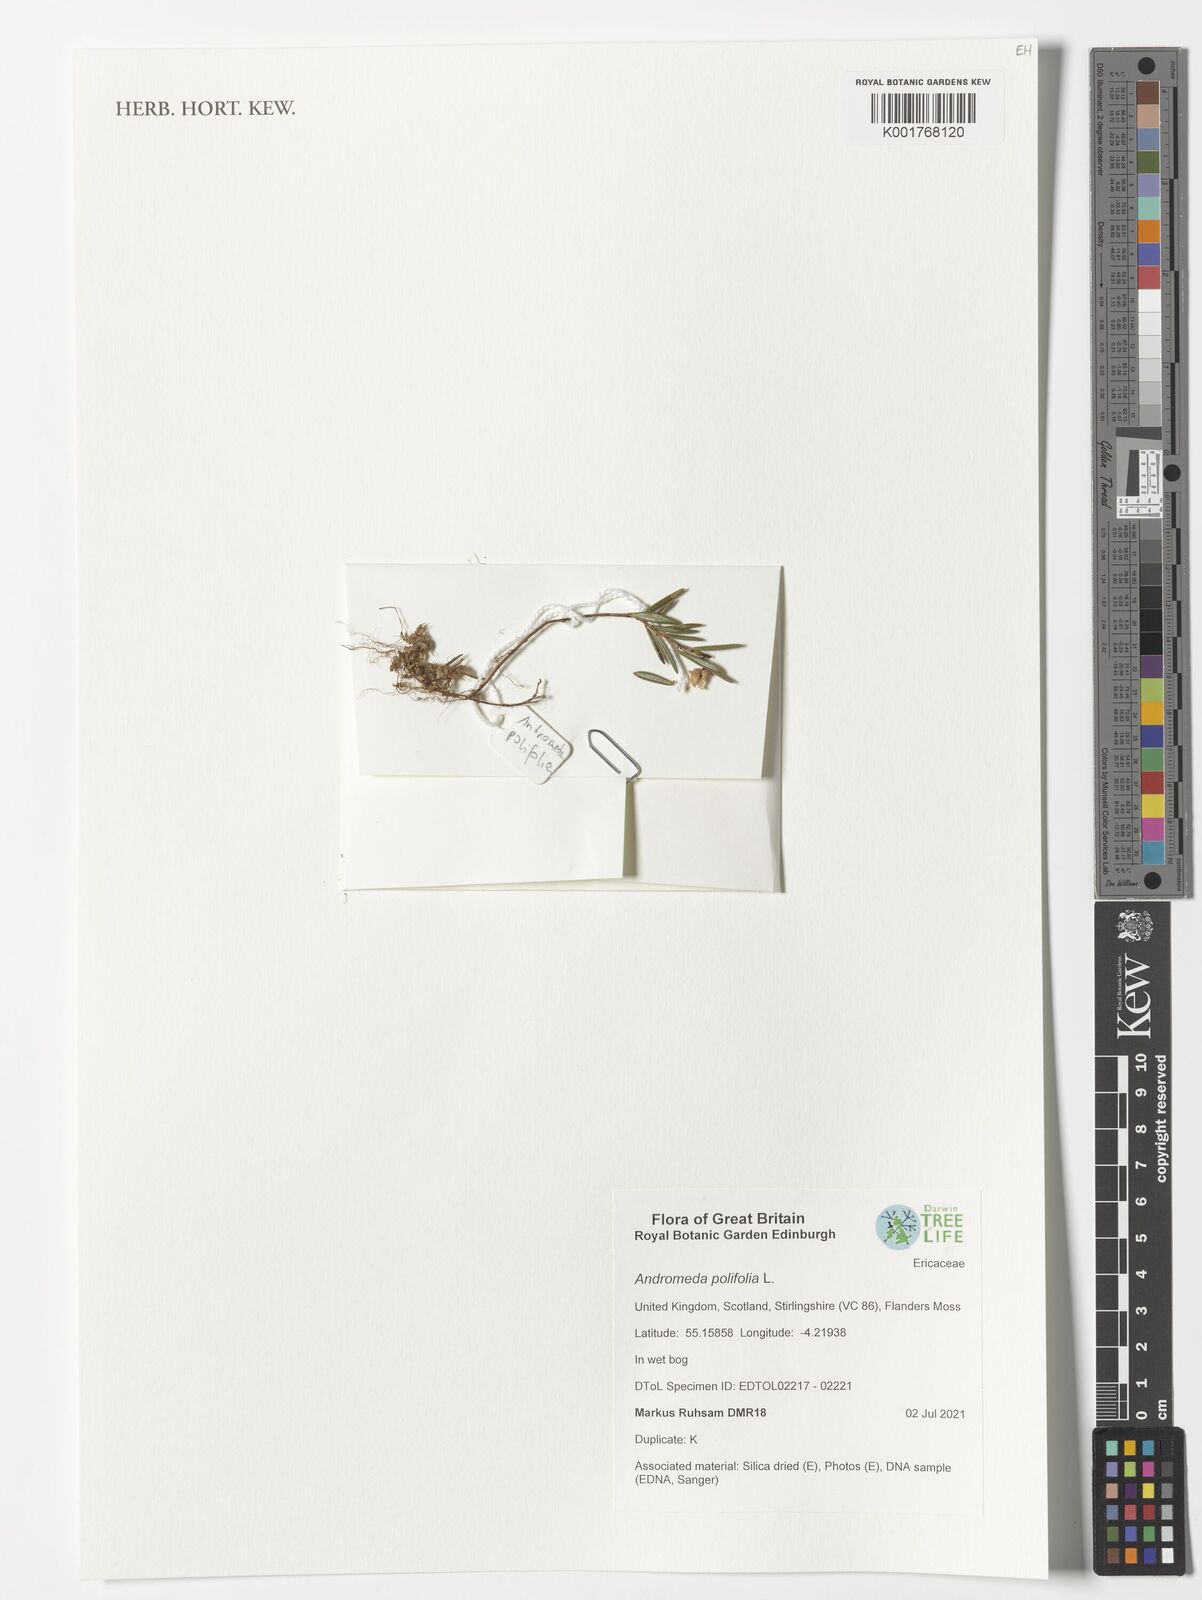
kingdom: Plantae
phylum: Tracheophyta
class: Magnoliopsida
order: Ericales
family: Ericaceae
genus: Andromeda
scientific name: Andromeda polifolia
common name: Bog-rosemary
